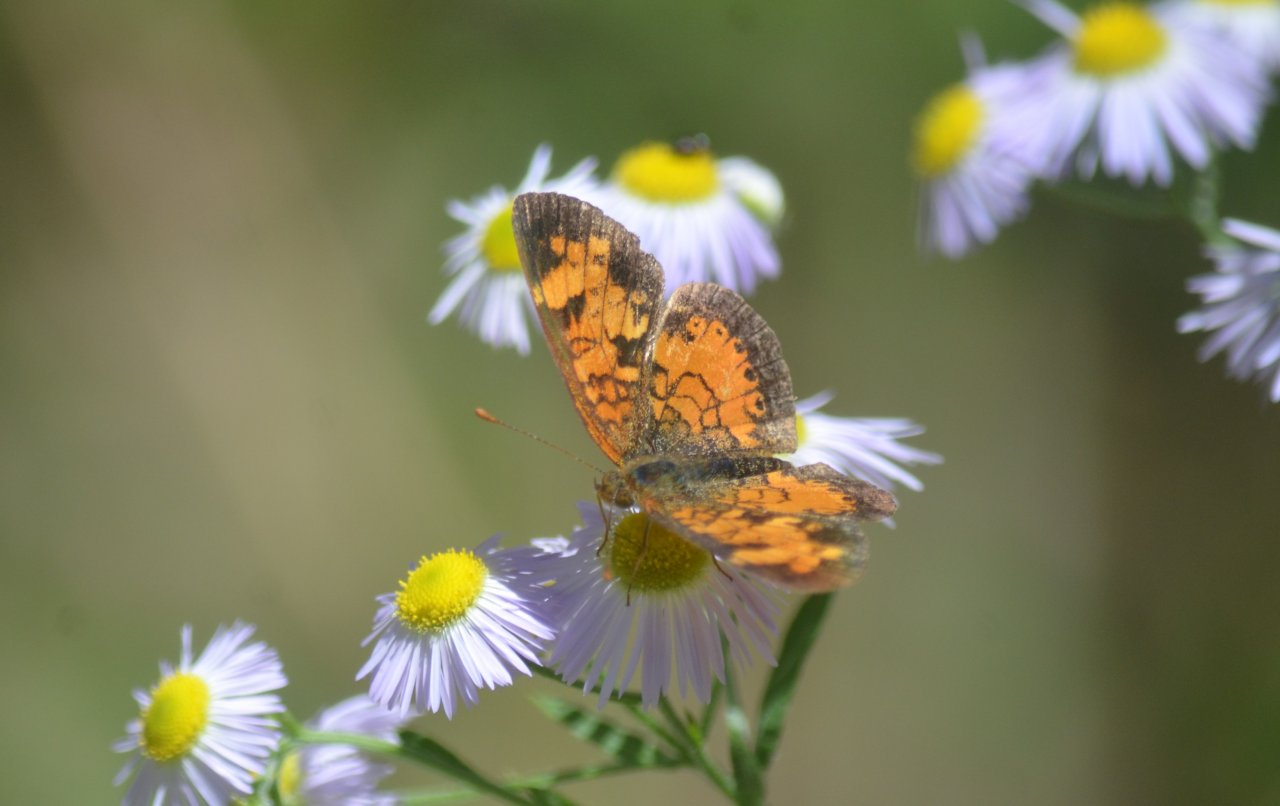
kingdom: Animalia
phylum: Arthropoda
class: Insecta
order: Lepidoptera
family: Nymphalidae
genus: Phyciodes
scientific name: Phyciodes tharos
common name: Northern Crescent
